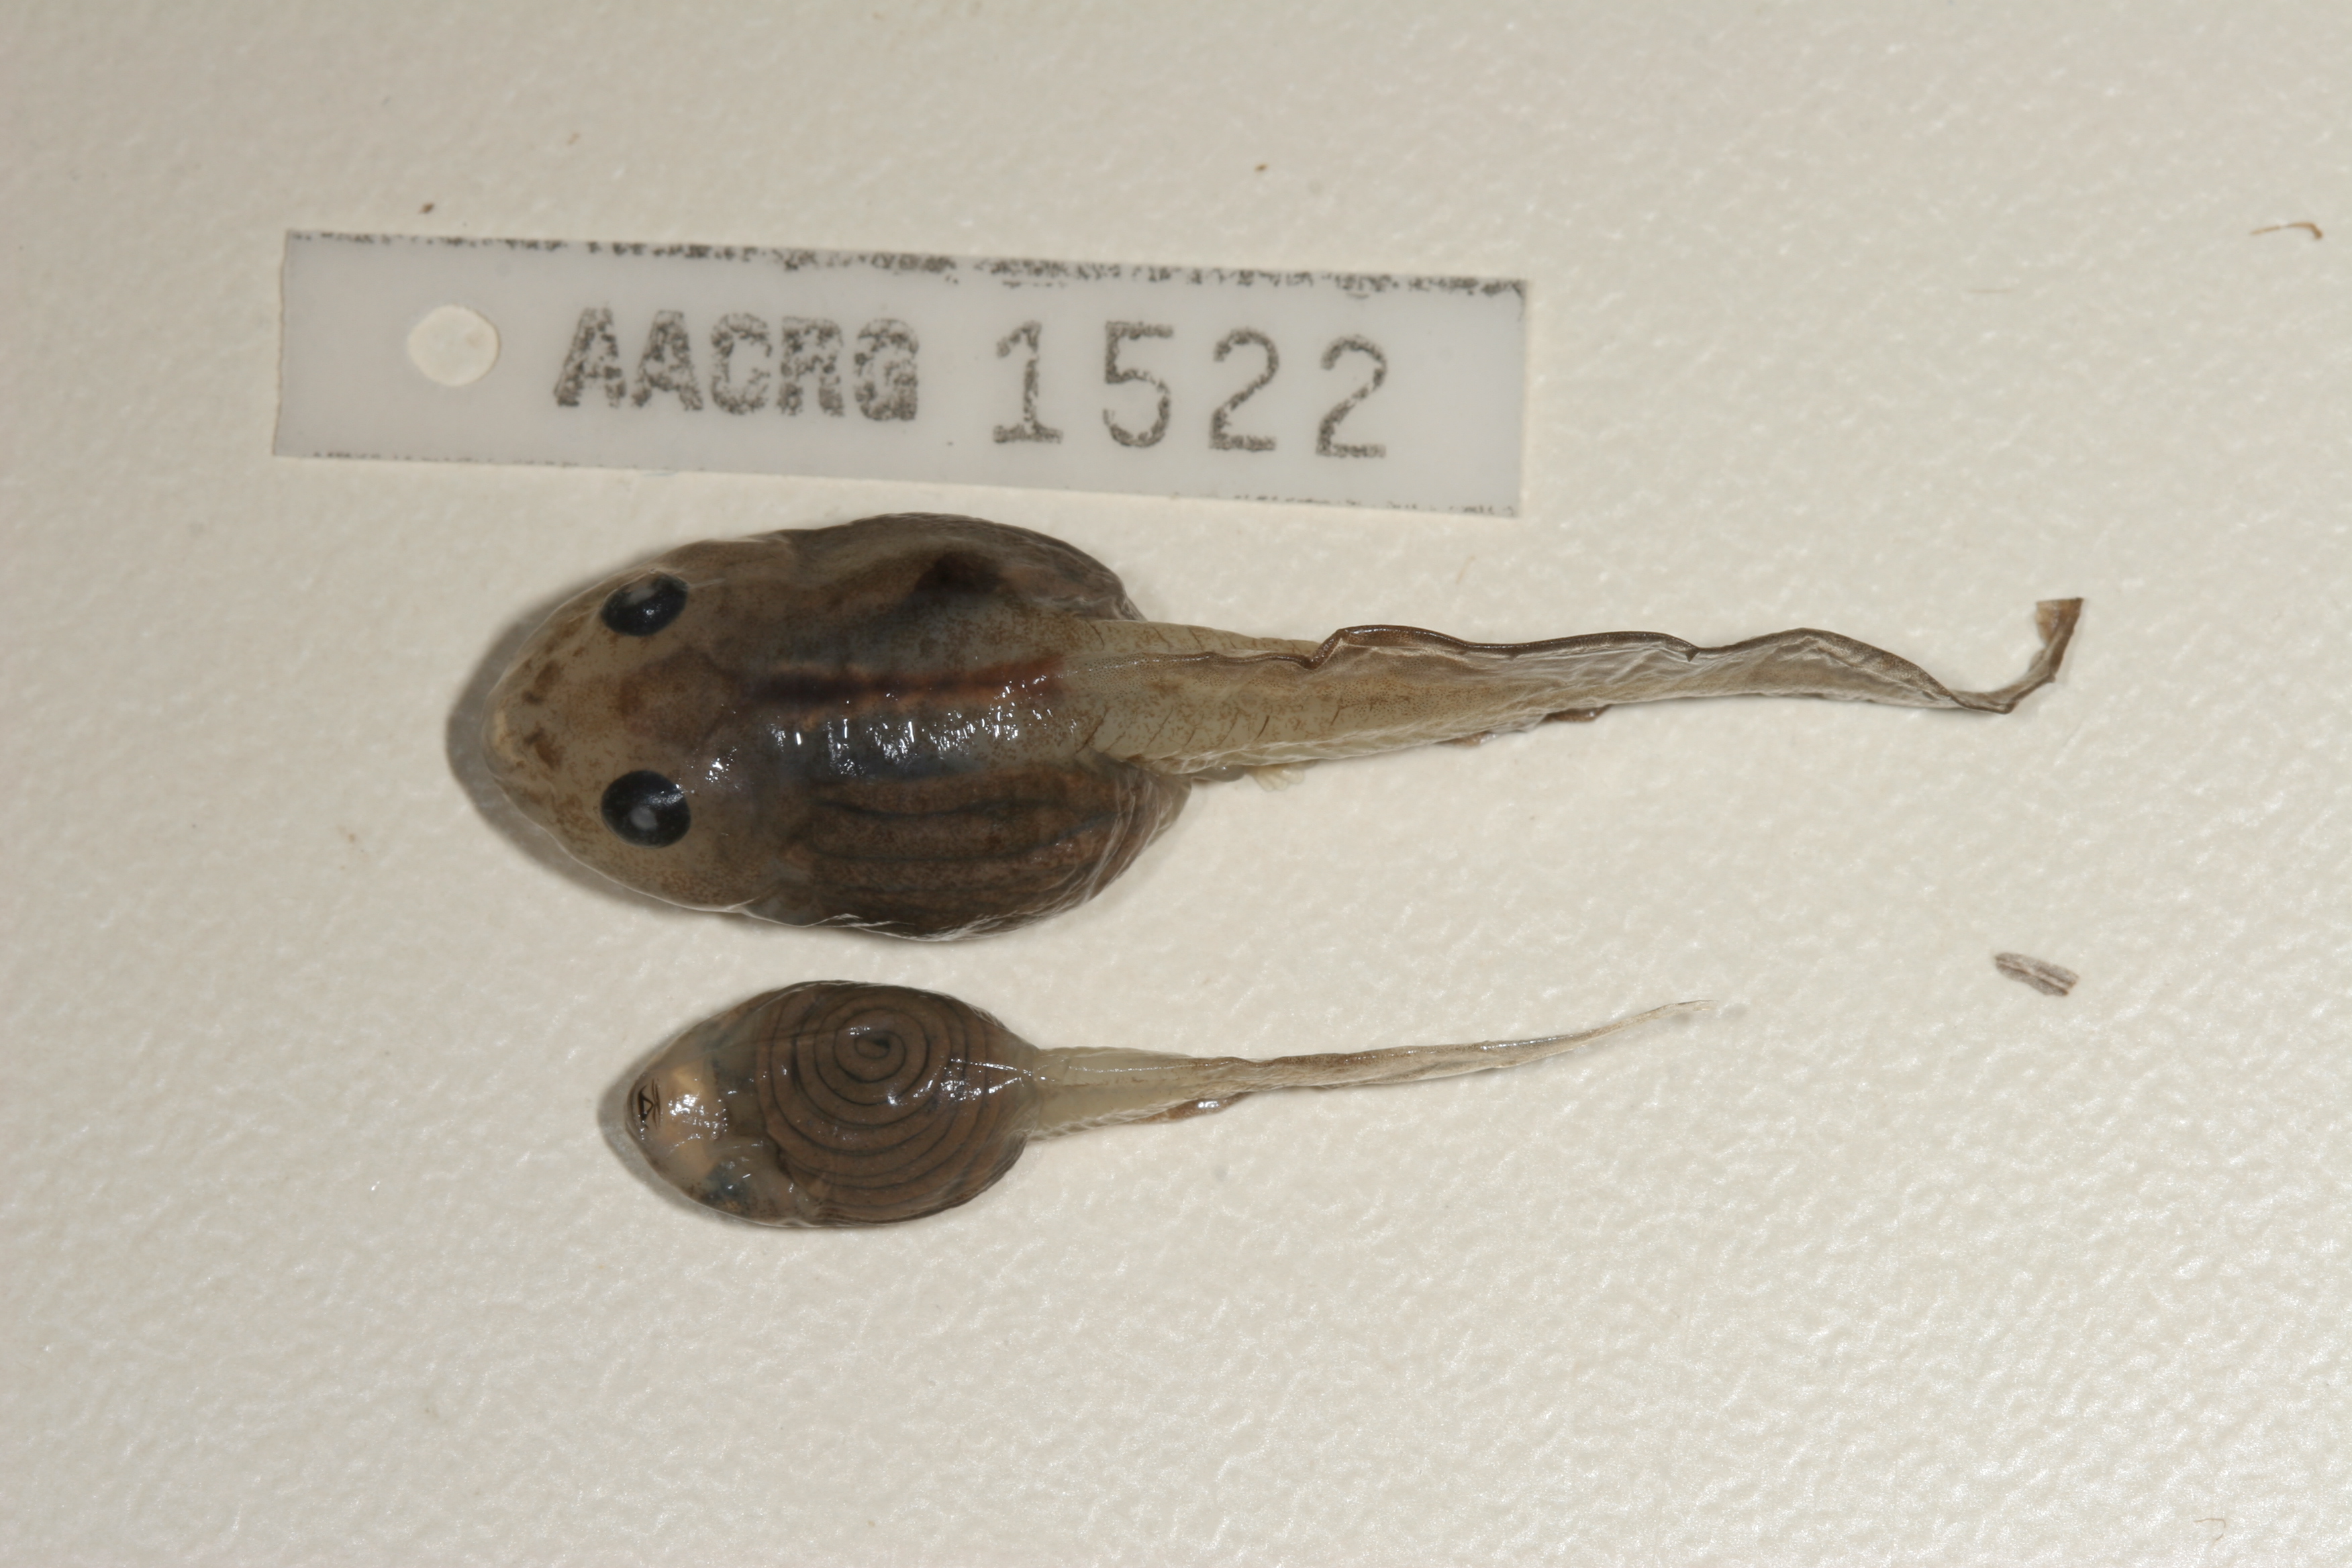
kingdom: Animalia
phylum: Chordata
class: Amphibia
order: Anura
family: Rhacophoridae
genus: Chiromantis
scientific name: Chiromantis xerampelina
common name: African gray treefrog
